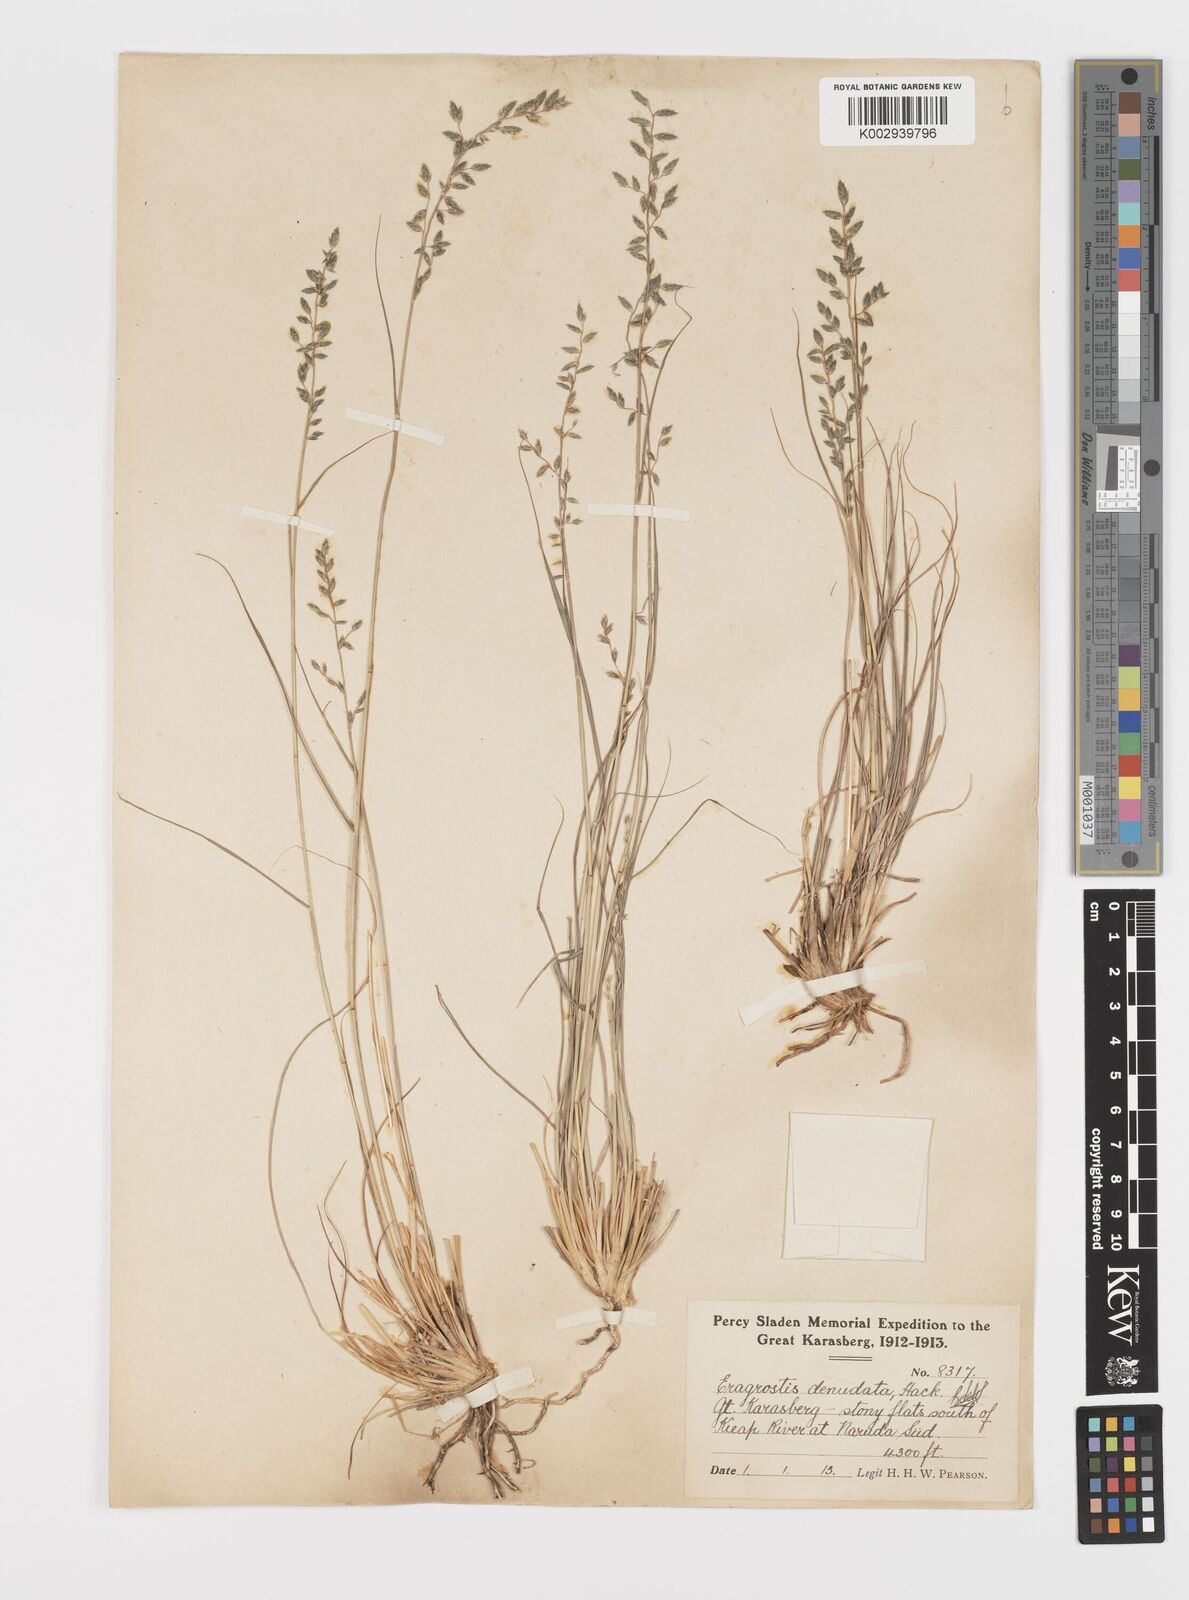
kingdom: Plantae
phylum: Tracheophyta
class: Liliopsida
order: Poales
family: Poaceae
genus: Eragrostis
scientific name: Eragrostis nindensis
